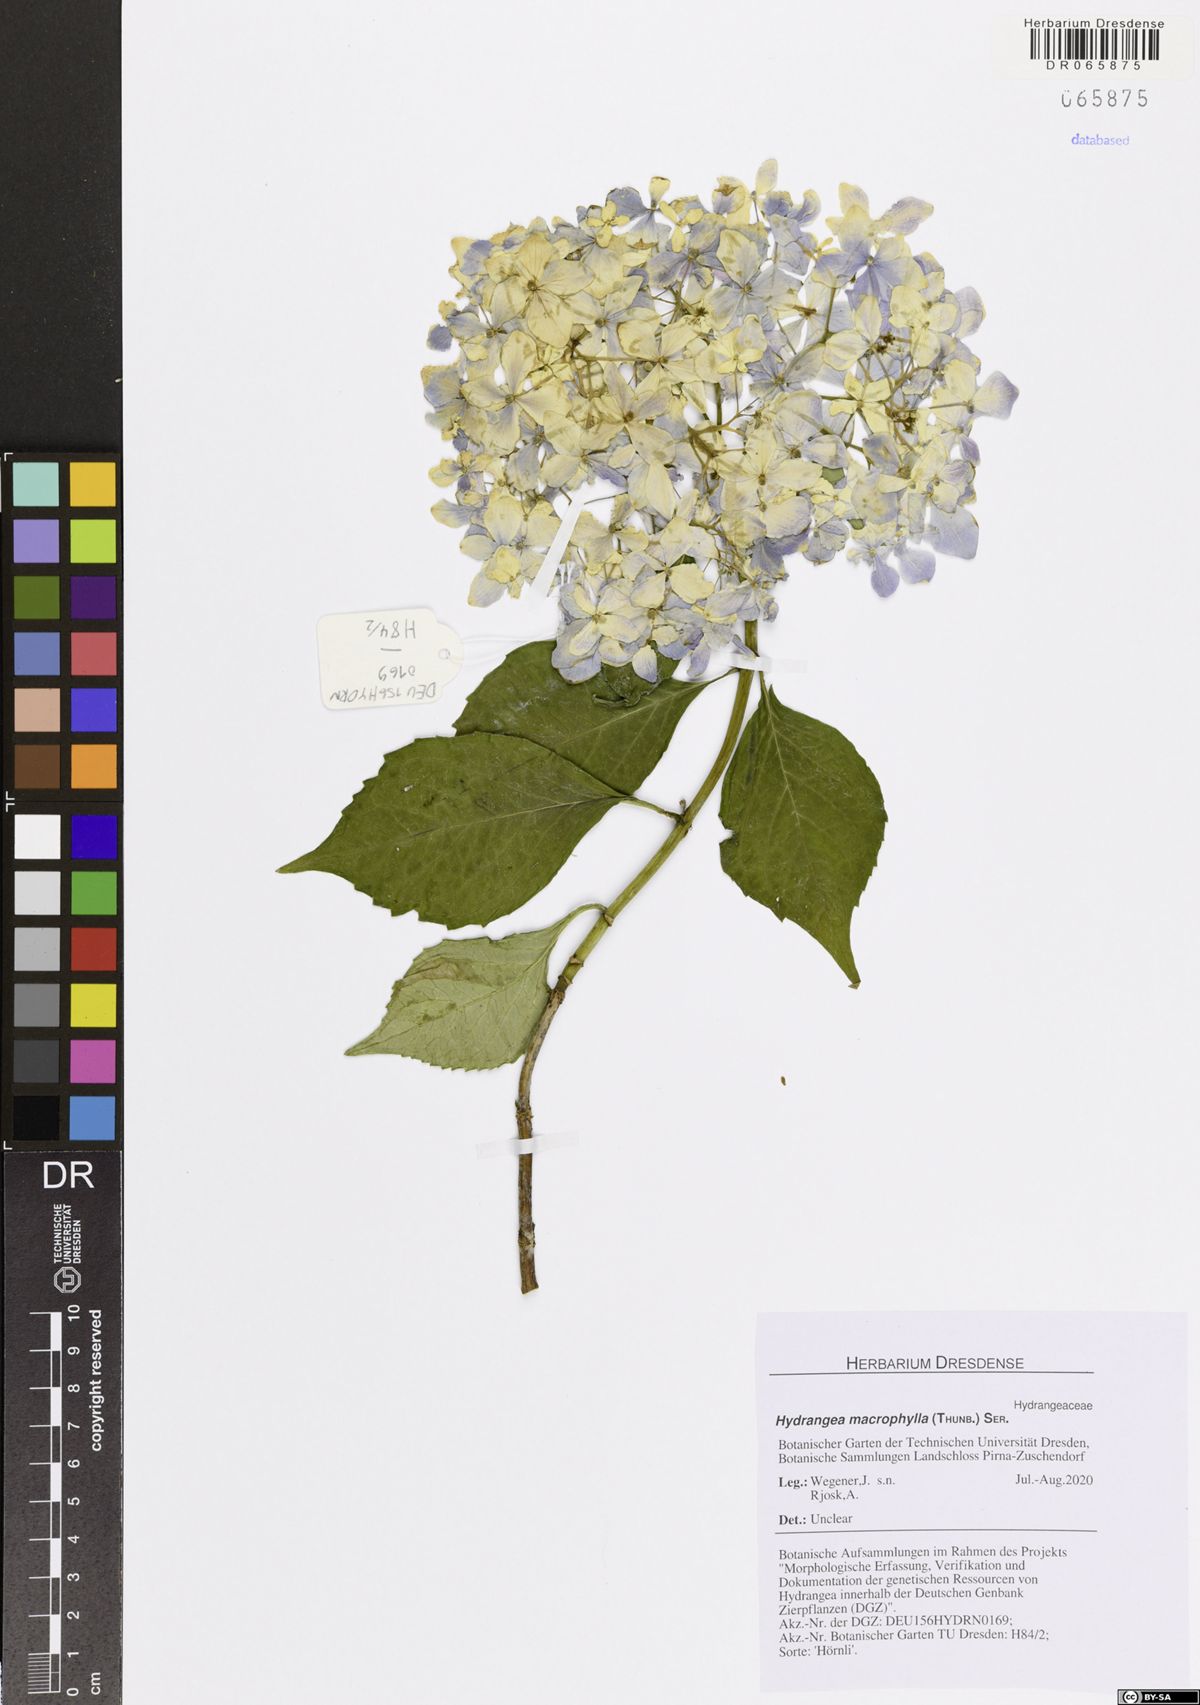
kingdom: Plantae
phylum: Tracheophyta
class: Magnoliopsida
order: Cornales
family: Hydrangeaceae
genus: Hydrangea
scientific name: Hydrangea macrophylla
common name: Hydrangea
